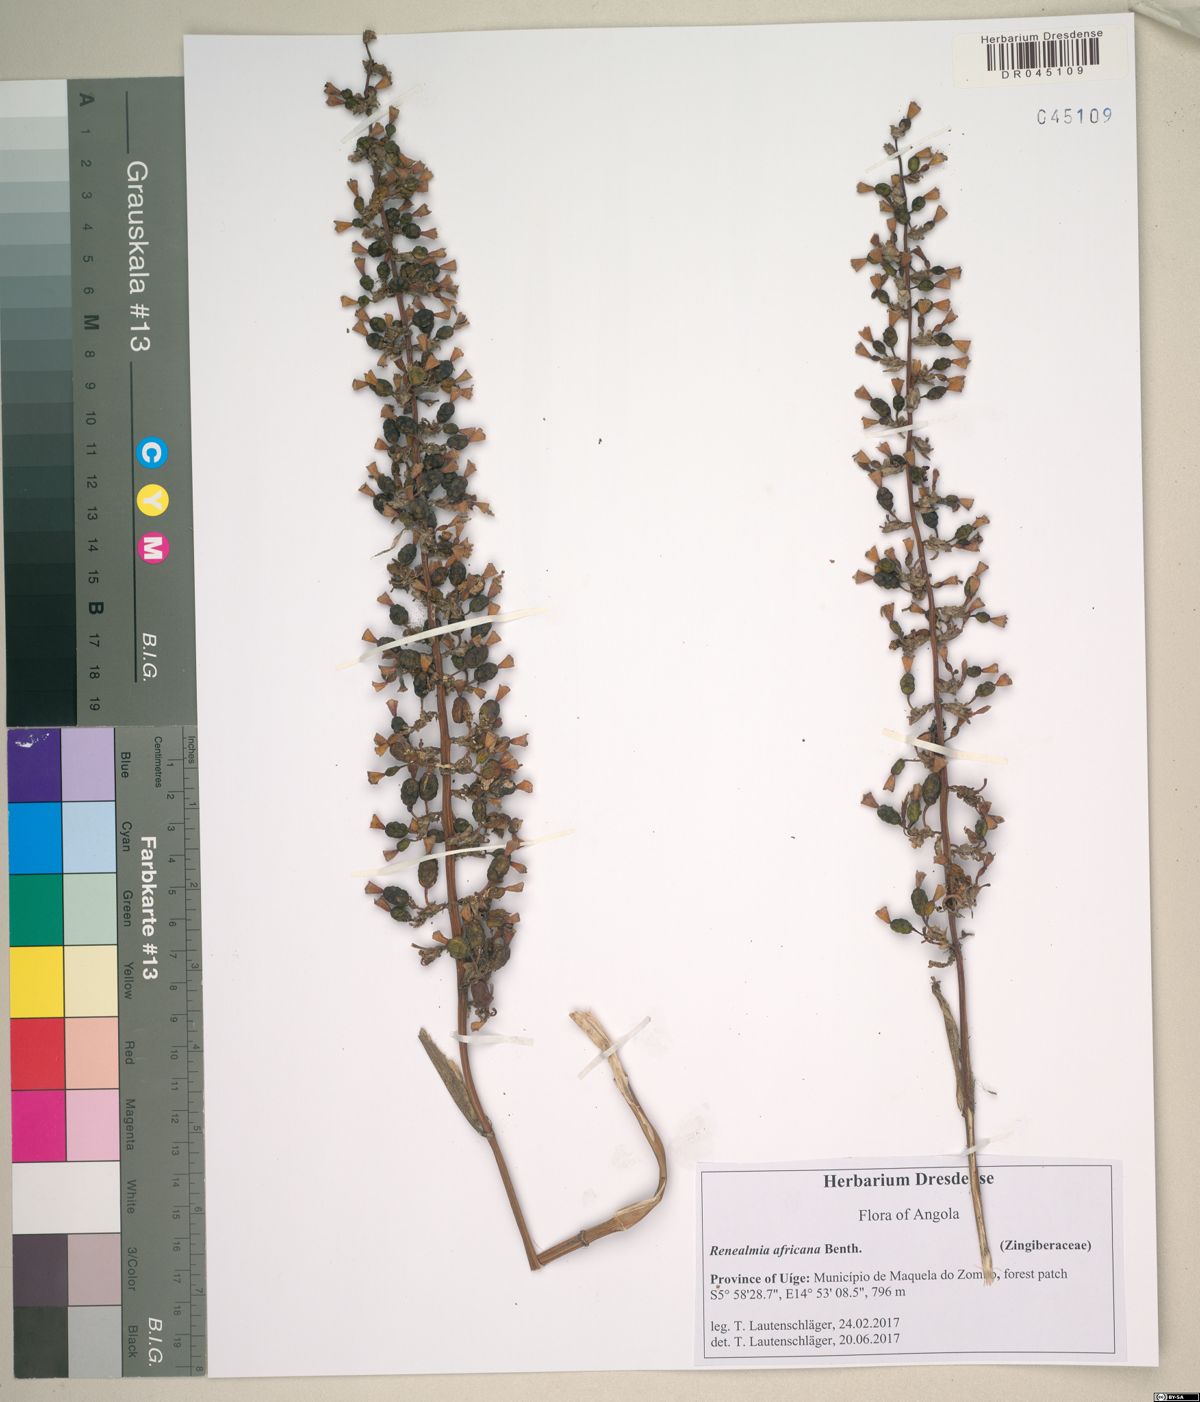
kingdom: Plantae
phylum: Tracheophyta
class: Liliopsida
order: Zingiberales
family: Zingiberaceae
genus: Renealmia
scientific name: Renealmia africana
